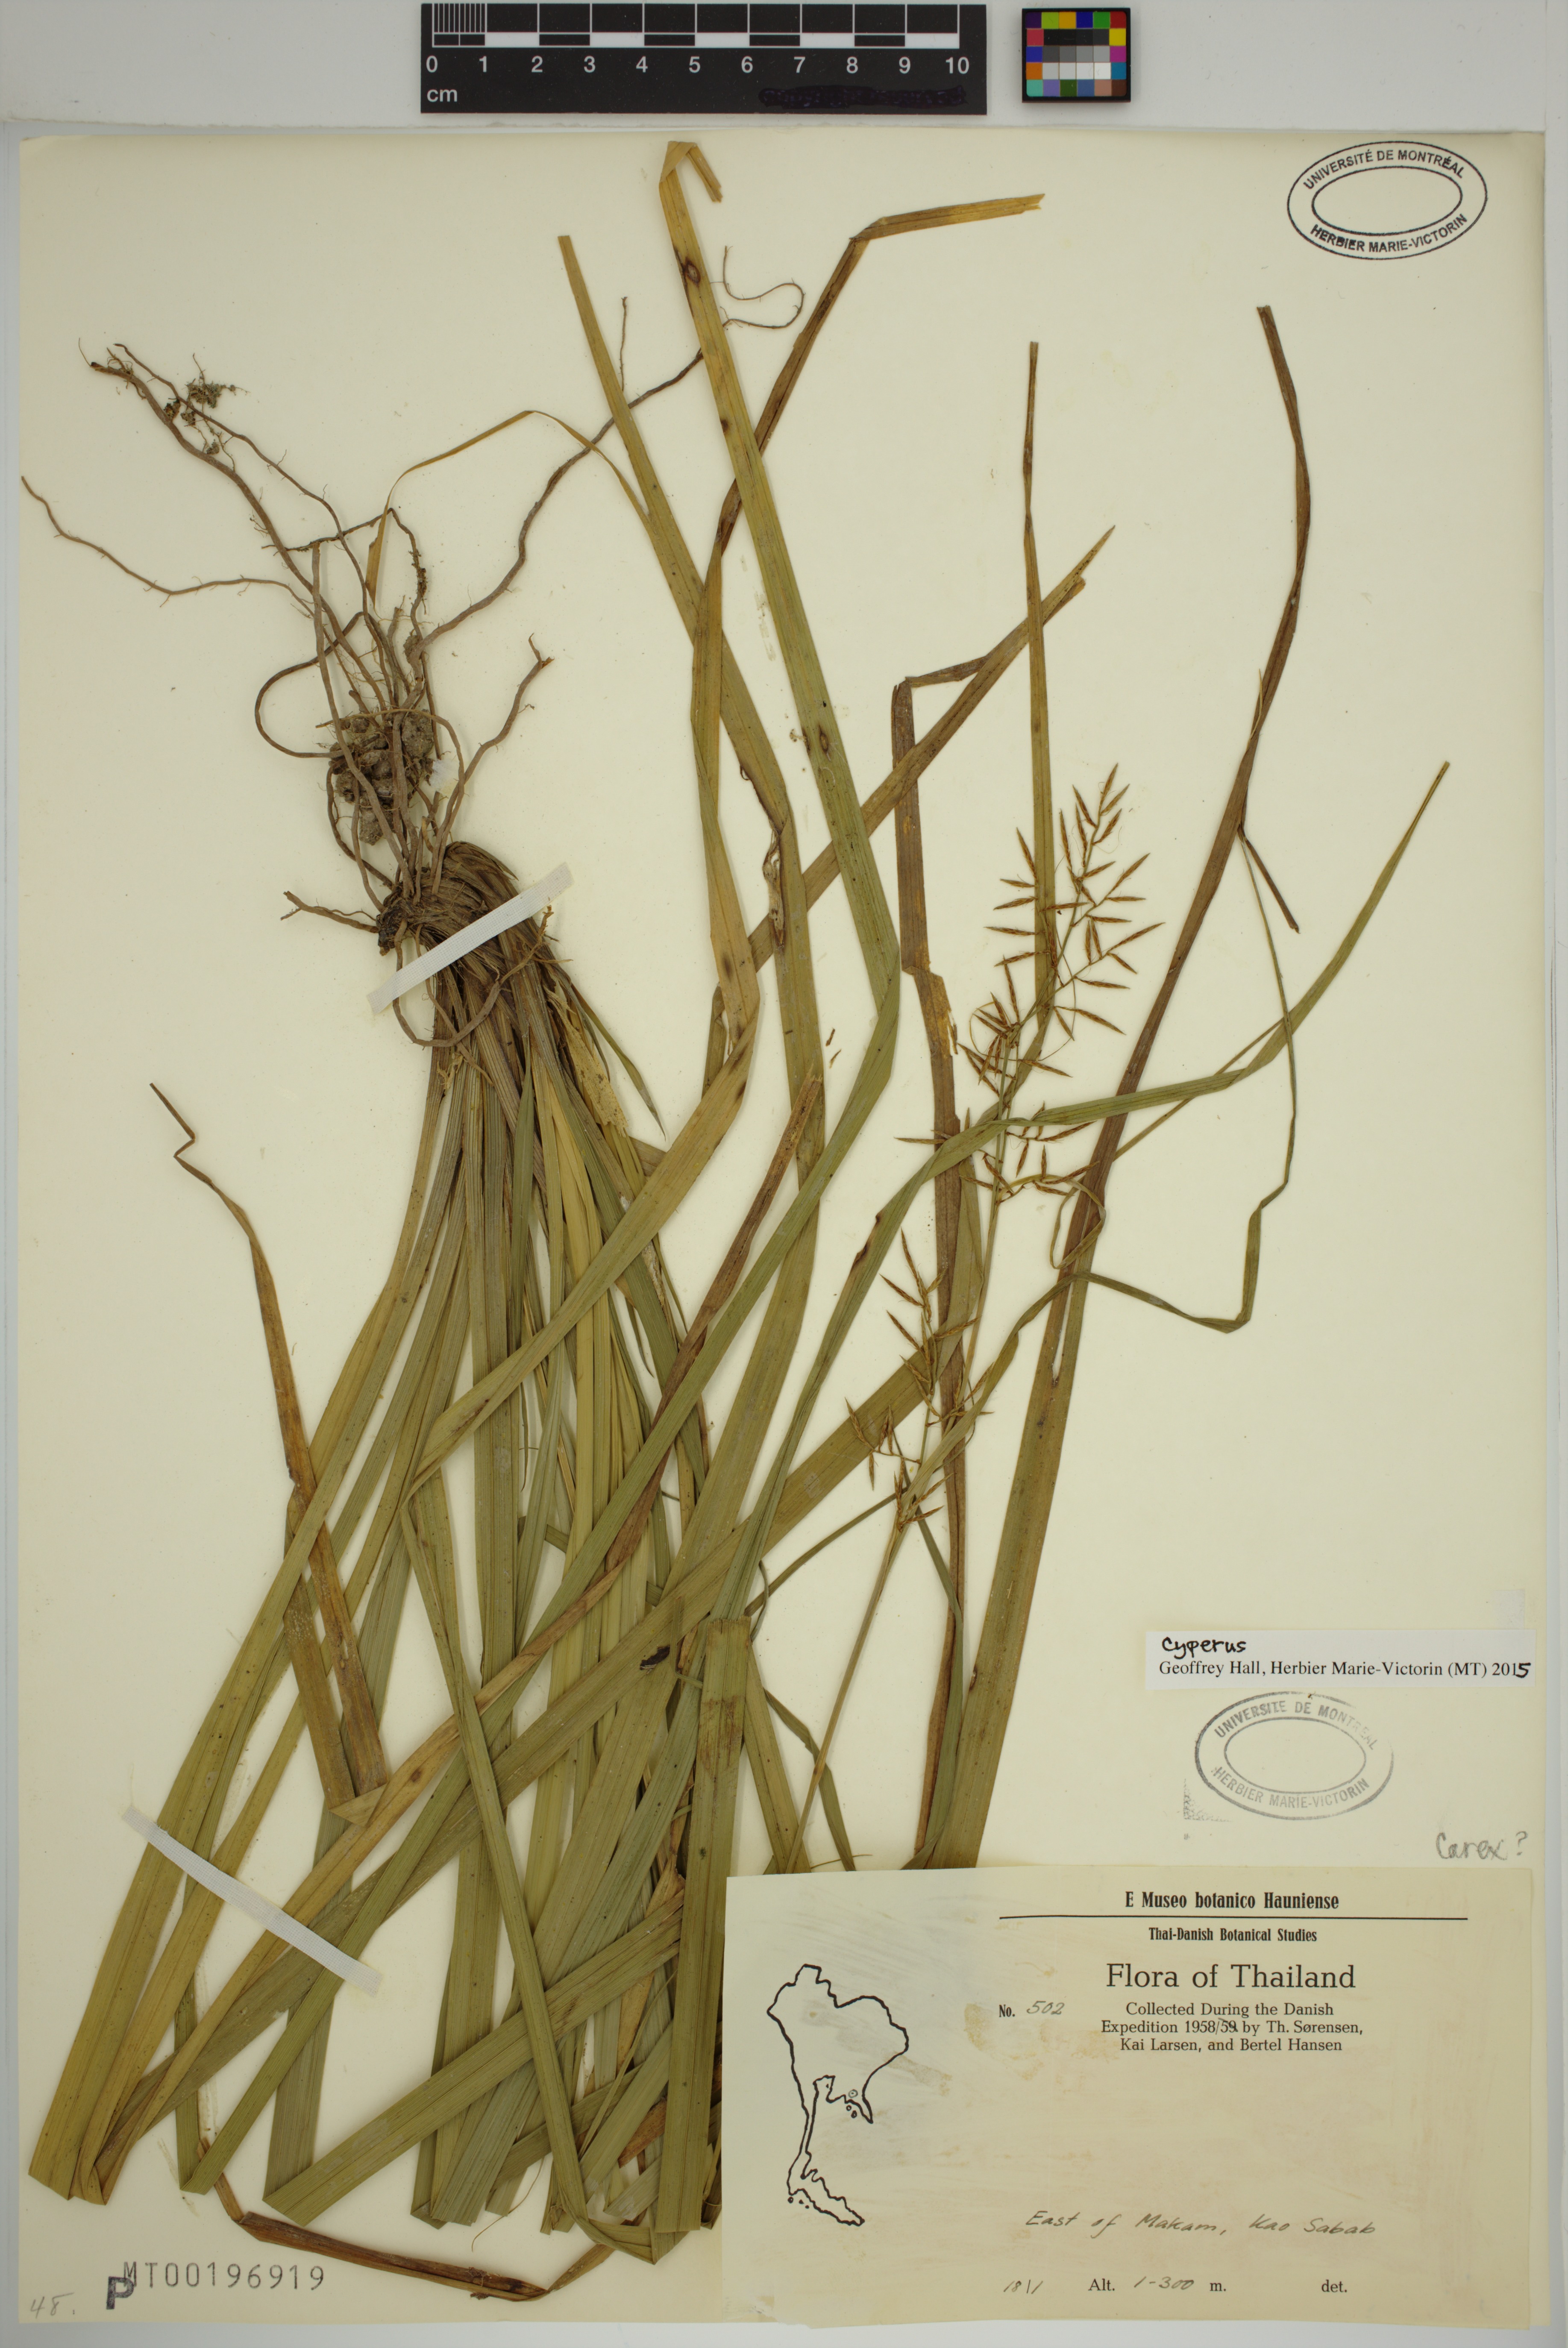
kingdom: Plantae
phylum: Tracheophyta
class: Liliopsida
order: Poales
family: Cyperaceae
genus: Cyperus
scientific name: Cyperus
